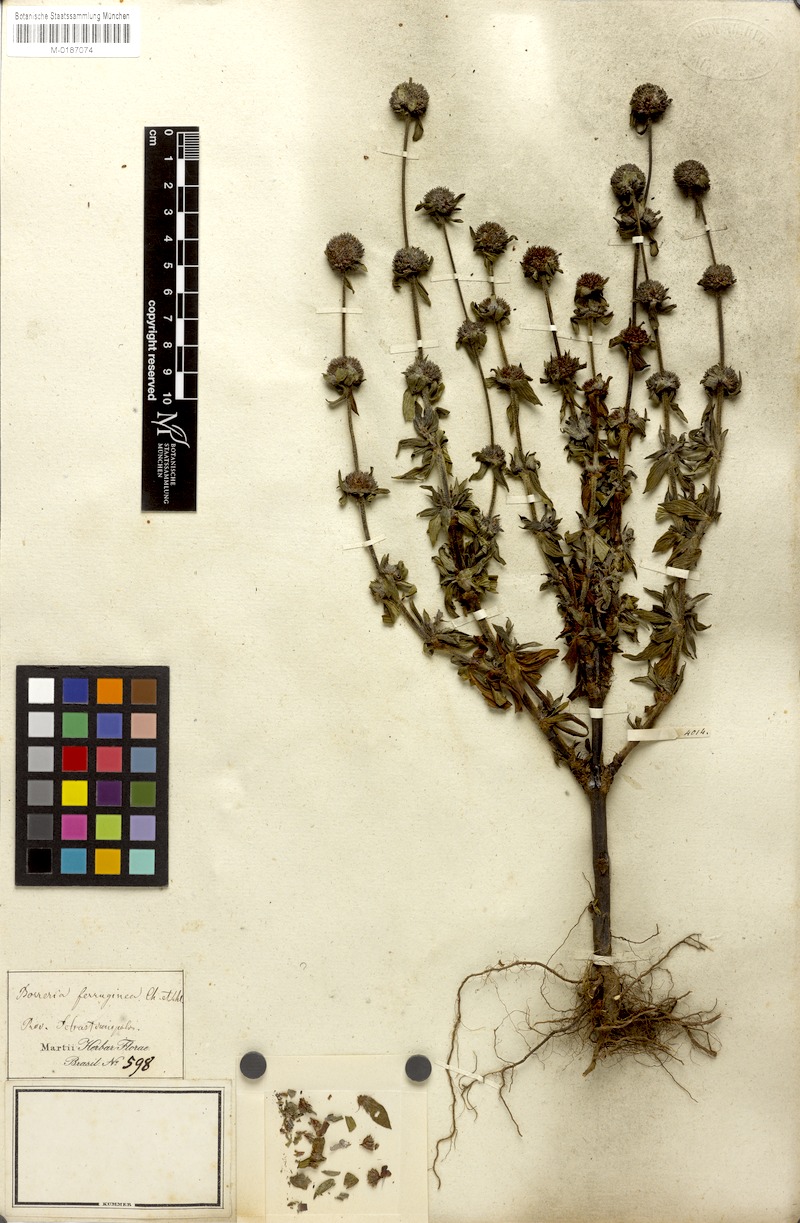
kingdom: Plantae
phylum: Tracheophyta
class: Magnoliopsida
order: Gentianales
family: Rubiaceae
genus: Spermacoce
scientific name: Spermacoce capitata
